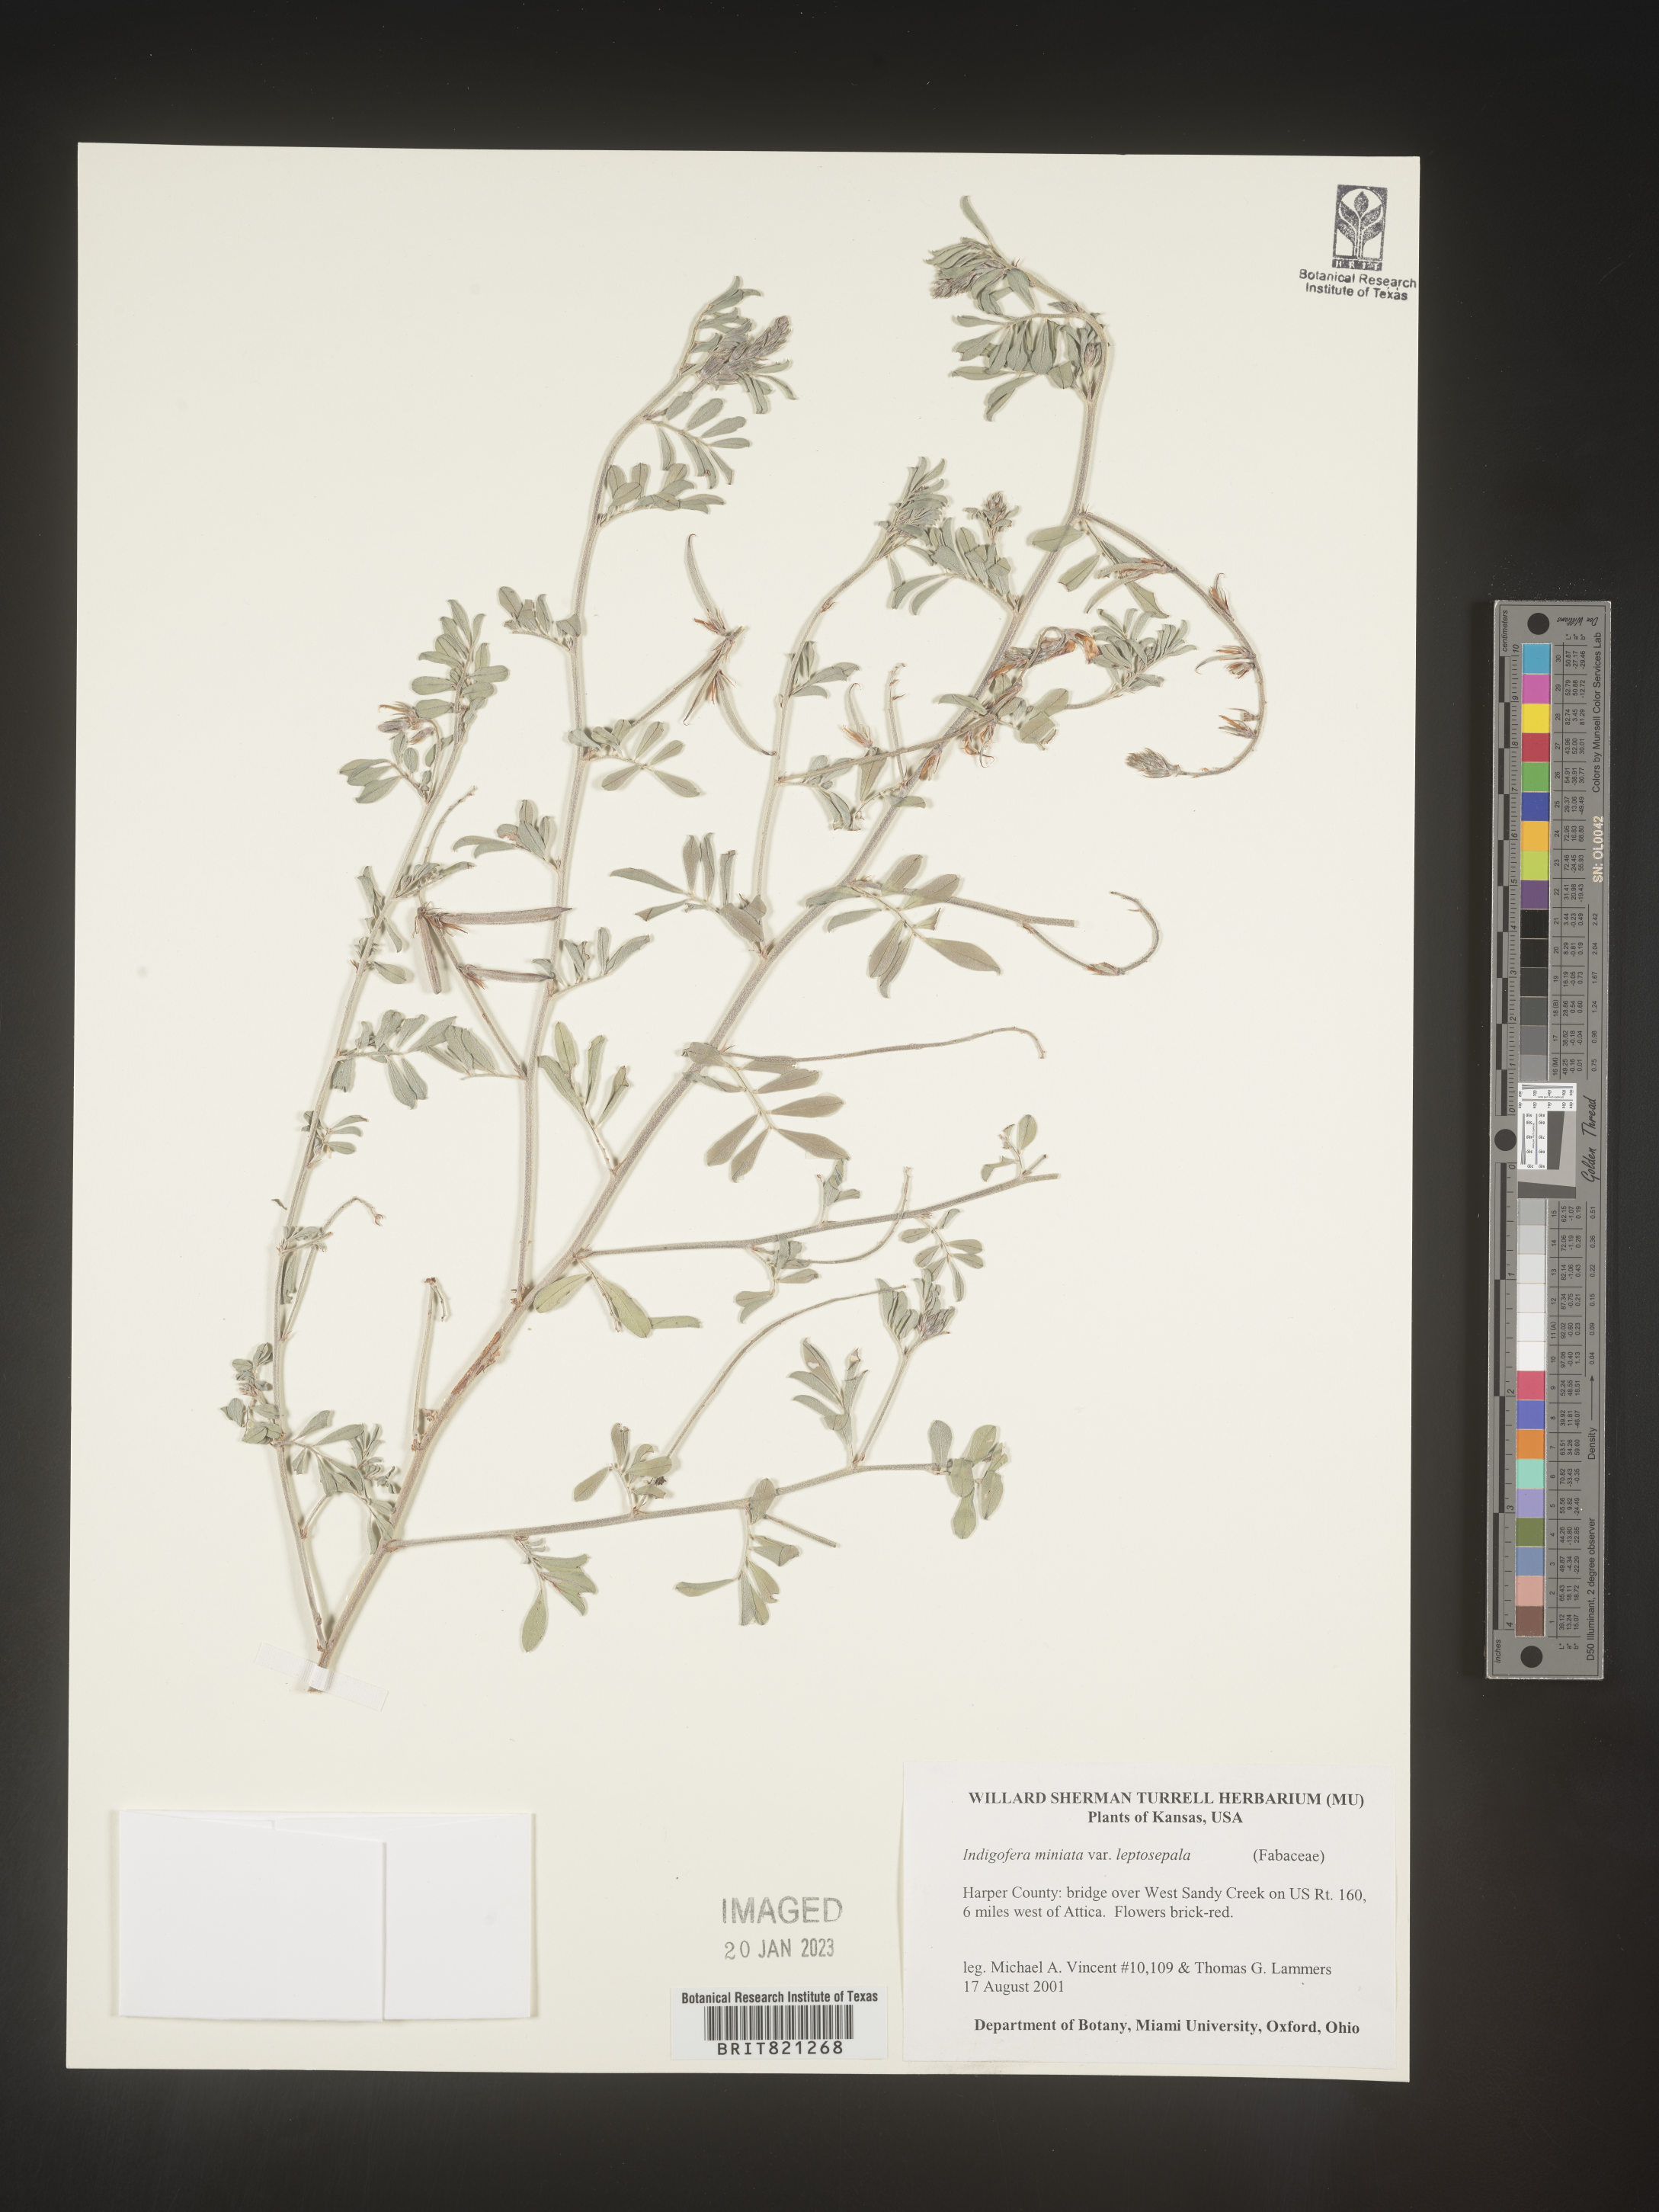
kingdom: Plantae
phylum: Tracheophyta
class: Magnoliopsida
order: Fabales
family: Fabaceae
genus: Indigofera
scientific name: Indigofera miniata
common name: Coast indigo
